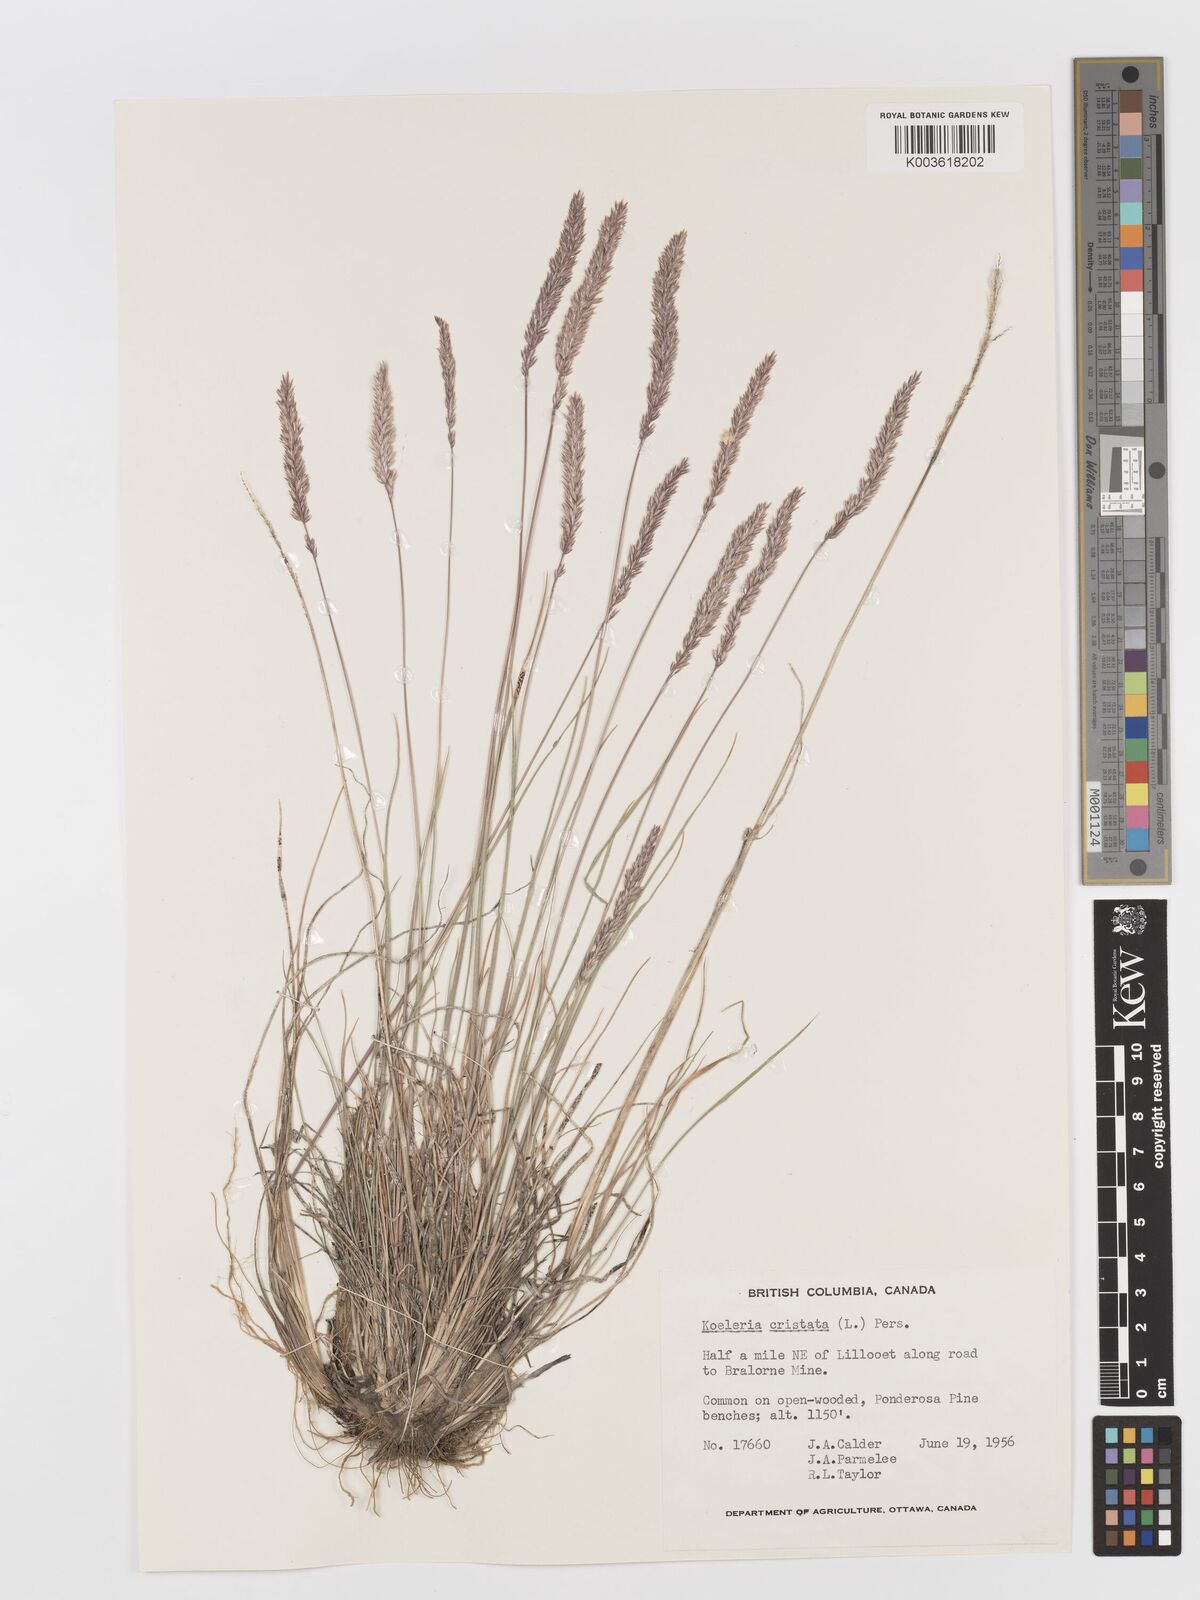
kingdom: Plantae
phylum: Tracheophyta
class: Liliopsida
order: Poales
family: Poaceae
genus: Koeleria
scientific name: Koeleria
